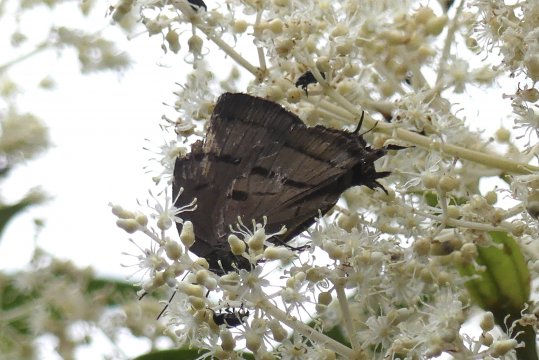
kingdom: Animalia
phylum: Arthropoda
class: Insecta
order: Lepidoptera
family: Lycaenidae
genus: Theritas
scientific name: Theritas mavors
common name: Deep-green Hairstreak
